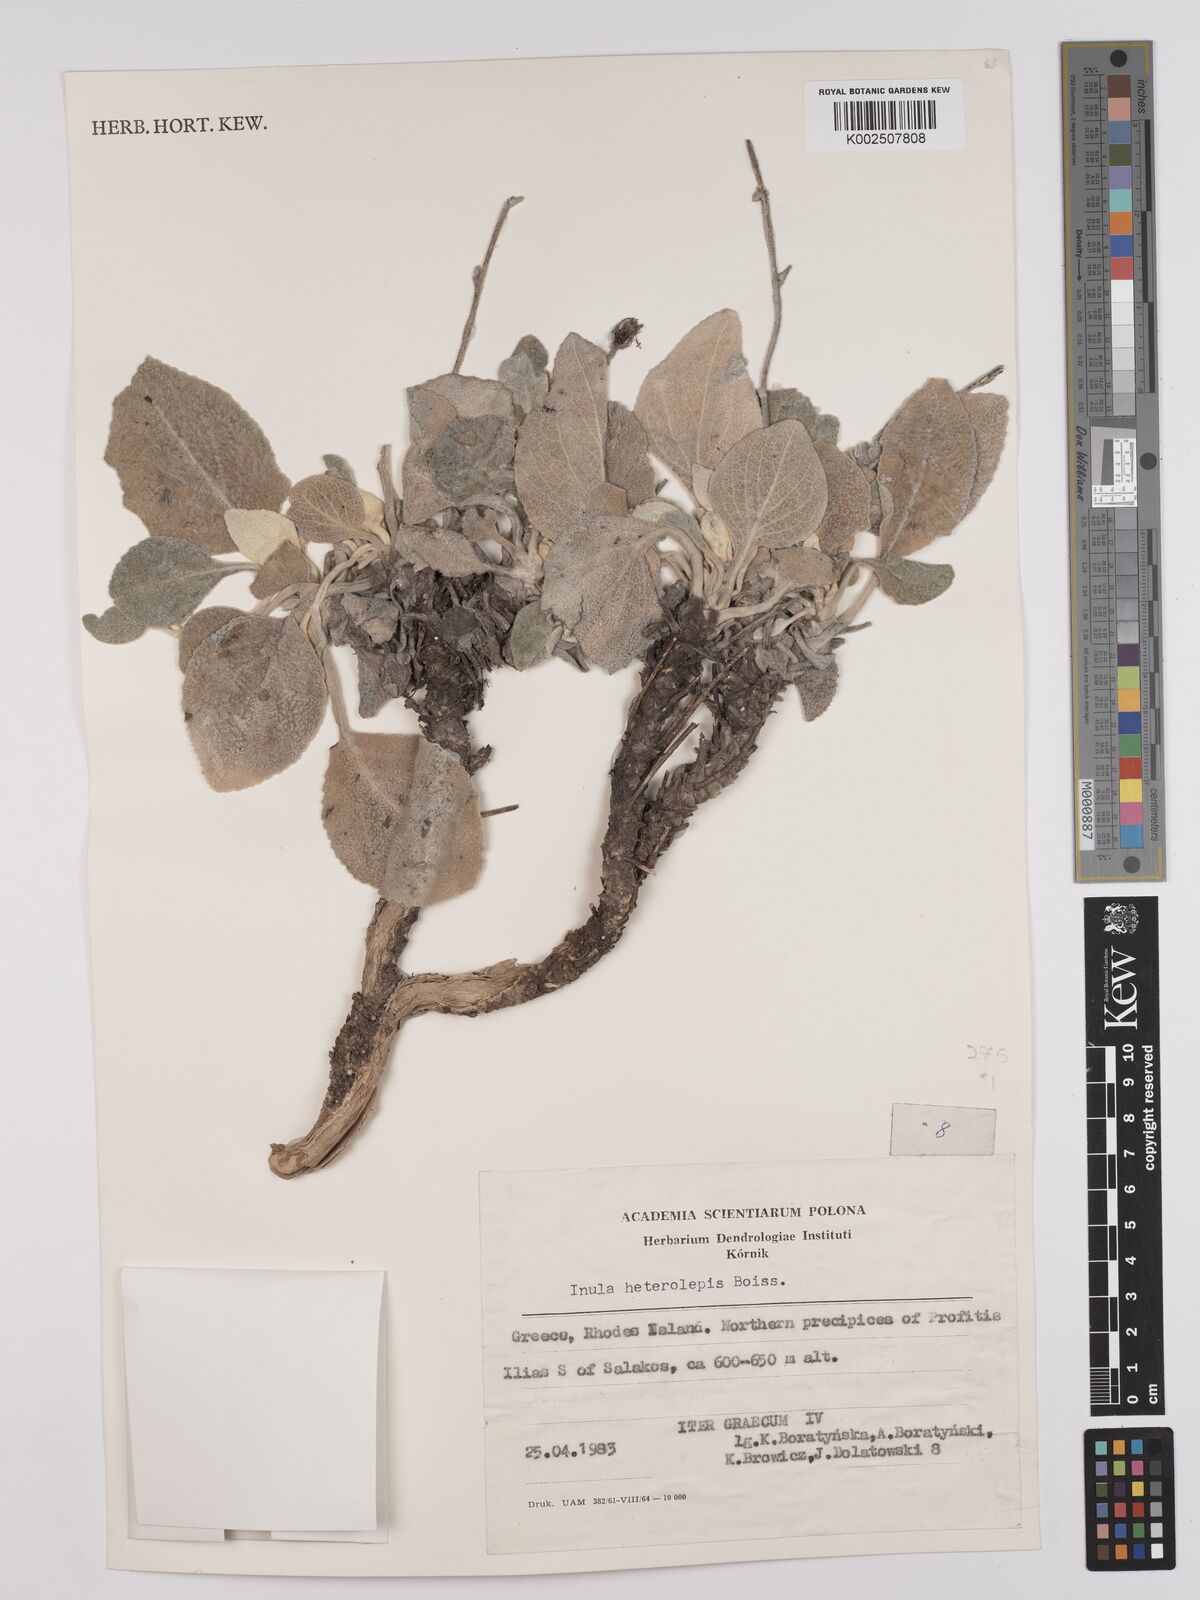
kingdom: Plantae
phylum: Tracheophyta
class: Magnoliopsida
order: Asterales
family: Asteraceae
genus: Pentanema
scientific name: Pentanema verbascifolium
